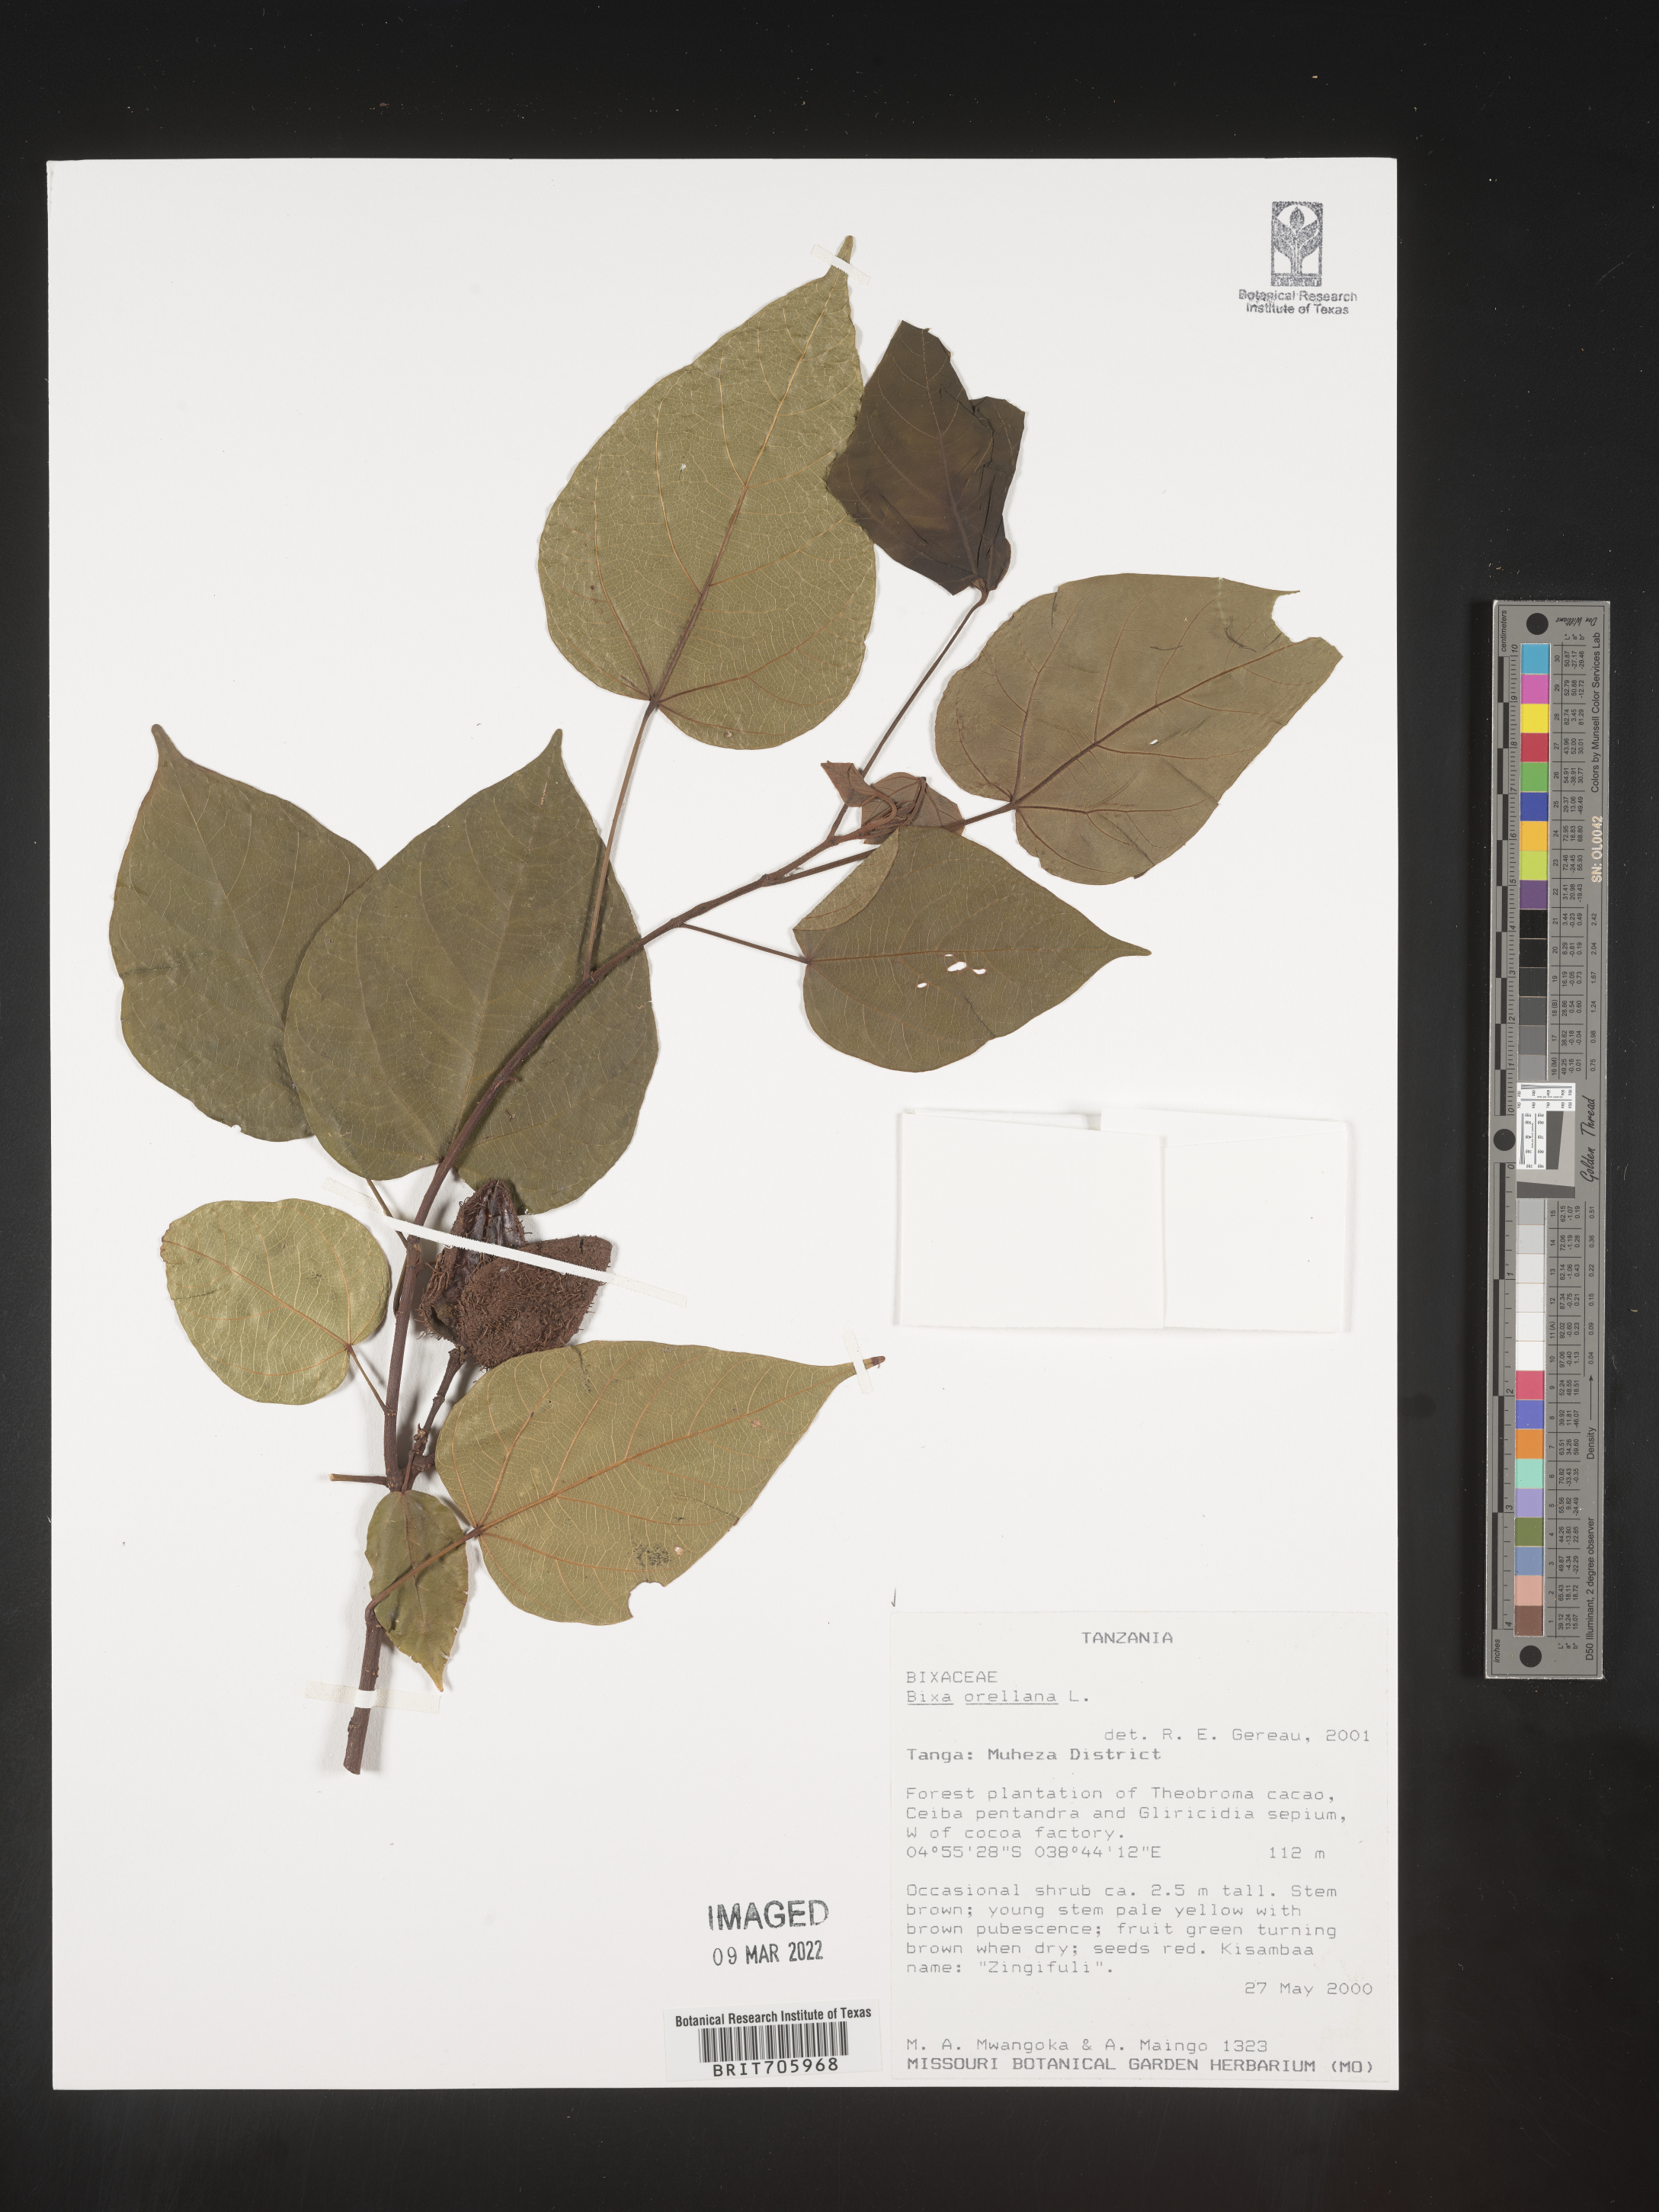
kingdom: Plantae
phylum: Tracheophyta
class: Magnoliopsida
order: Malvales
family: Bixaceae
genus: Bixa
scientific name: Bixa
